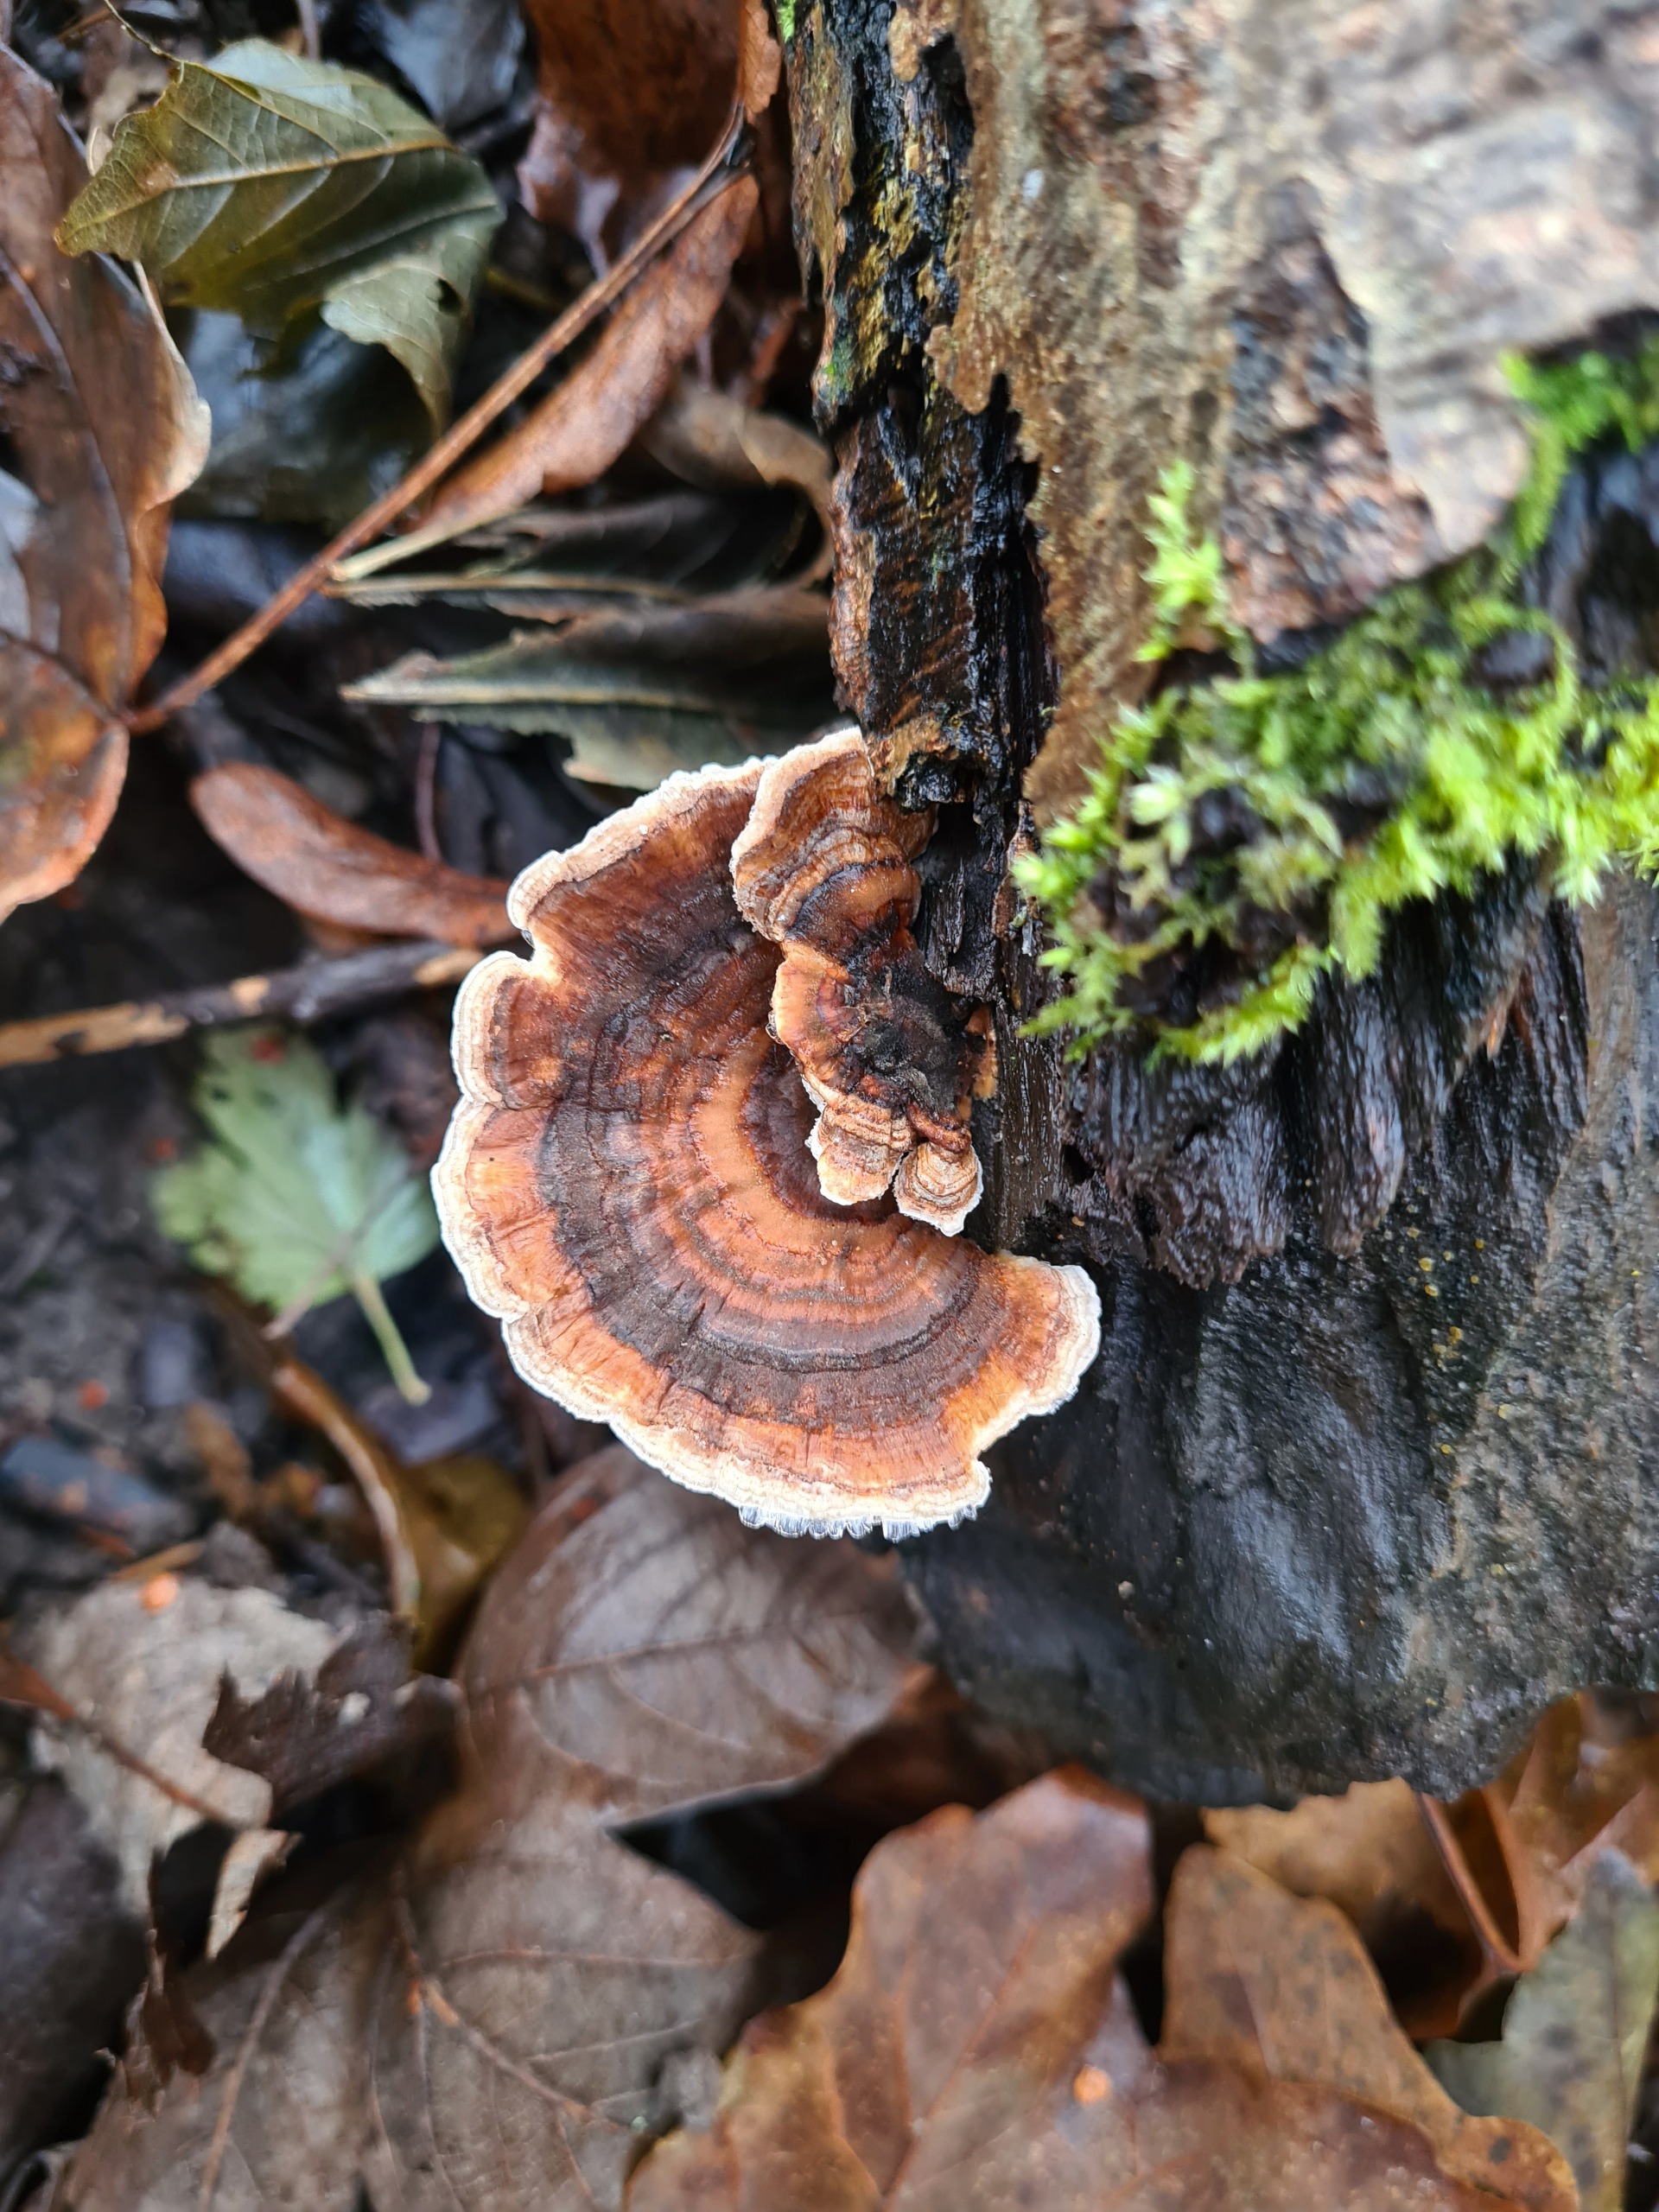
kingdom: Fungi
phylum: Basidiomycota
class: Agaricomycetes
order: Polyporales
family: Polyporaceae
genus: Trametes
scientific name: Trametes versicolor
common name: Broget læderporesvamp
